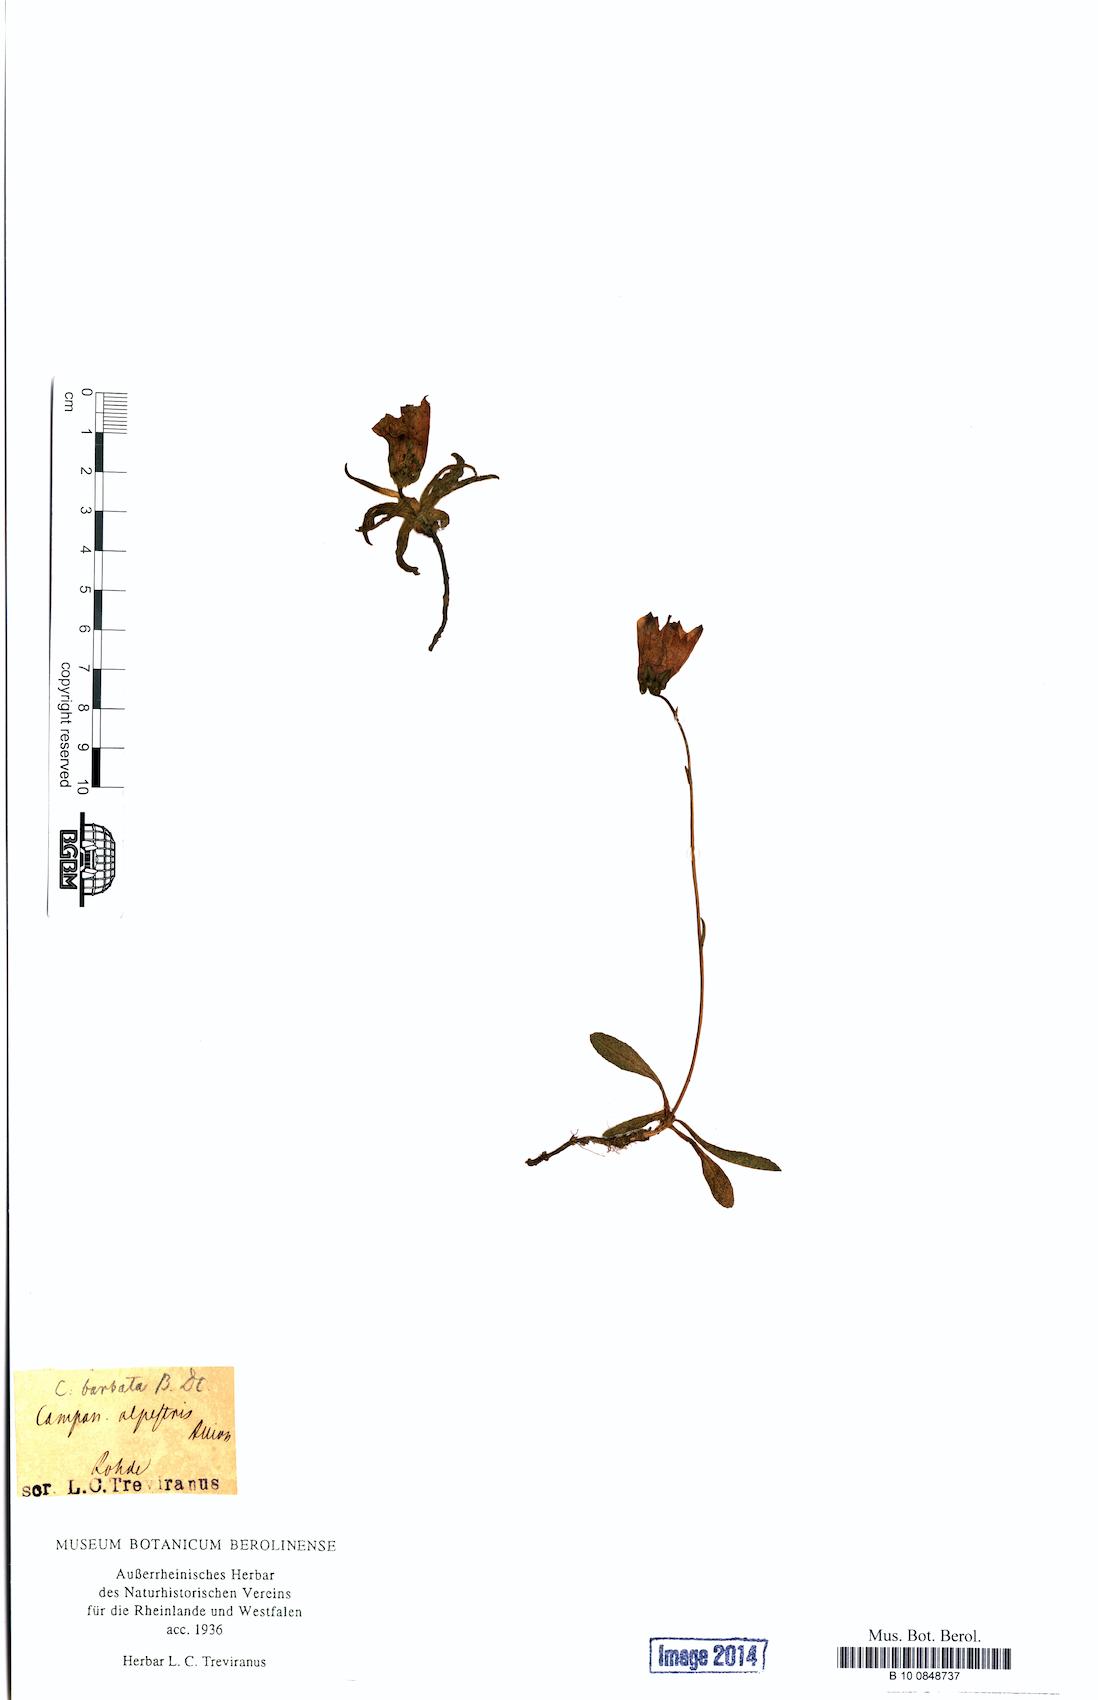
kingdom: Plantae
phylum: Tracheophyta
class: Magnoliopsida
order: Asterales
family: Campanulaceae
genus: Campanula
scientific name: Campanula barbata
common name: Bearded bellflower
